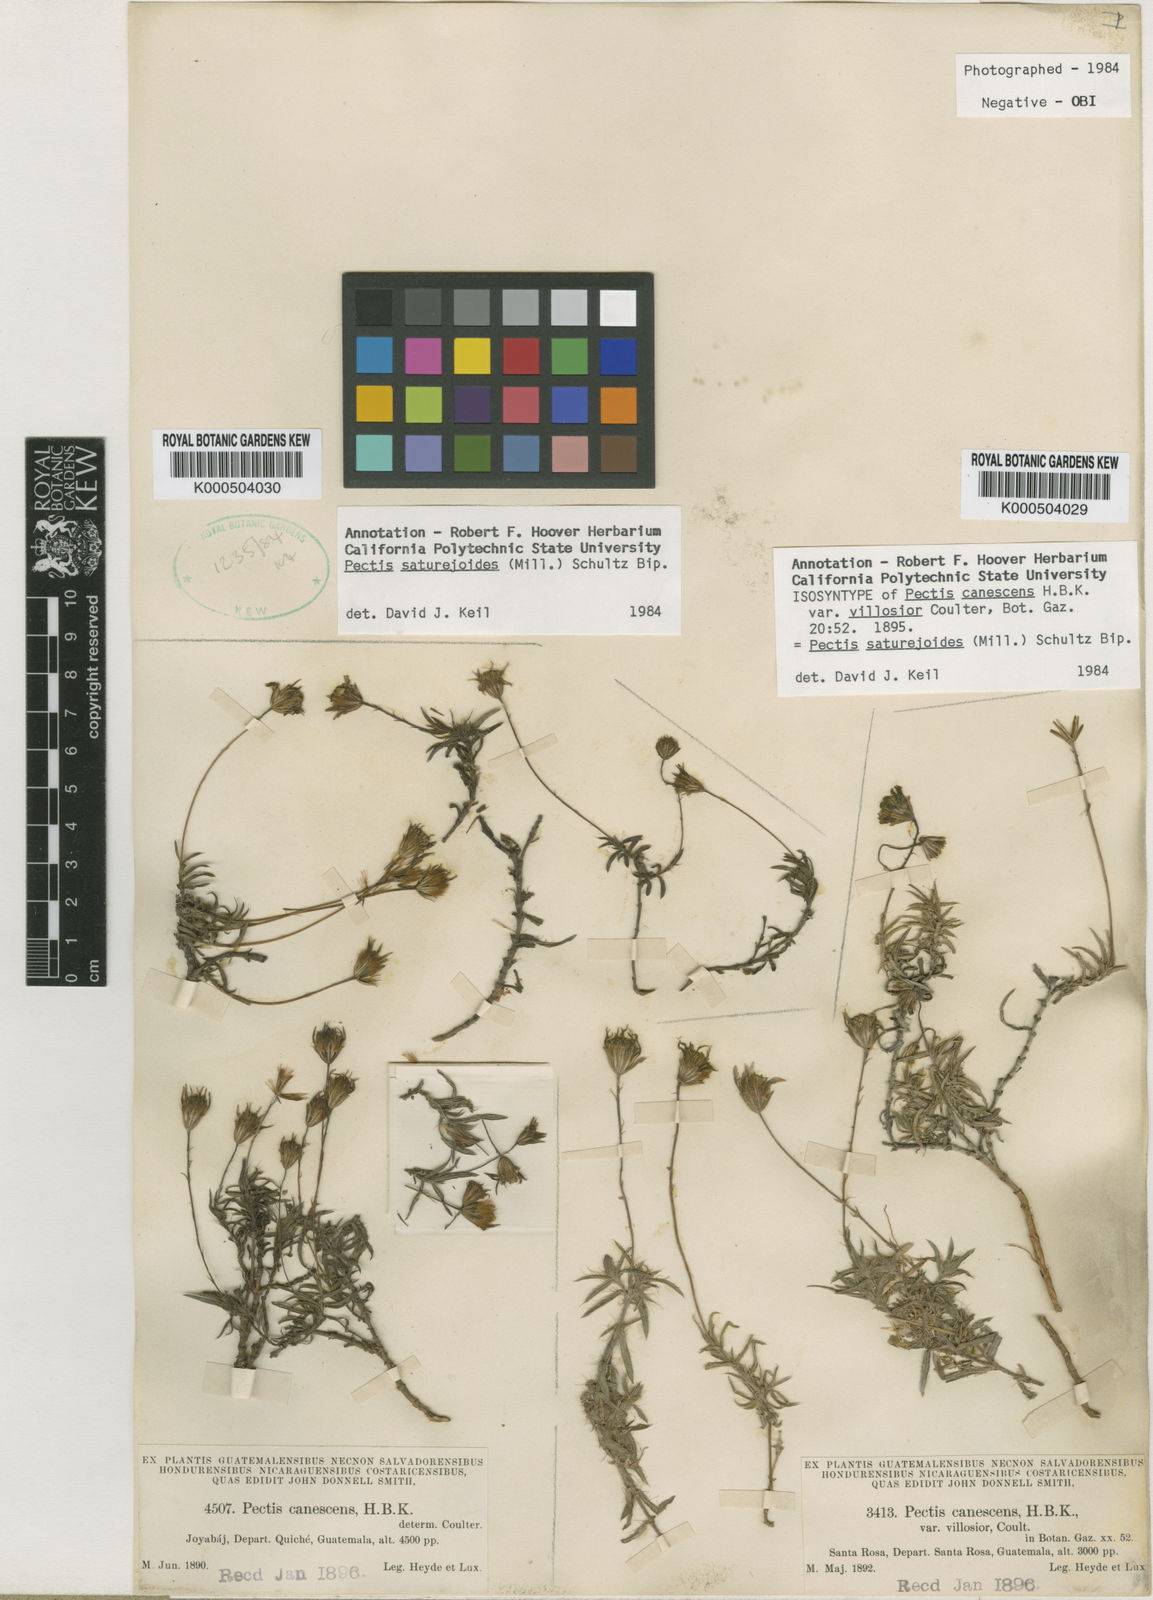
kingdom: Plantae
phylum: Tracheophyta
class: Magnoliopsida
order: Asterales
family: Asteraceae
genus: Pectis
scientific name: Pectis
